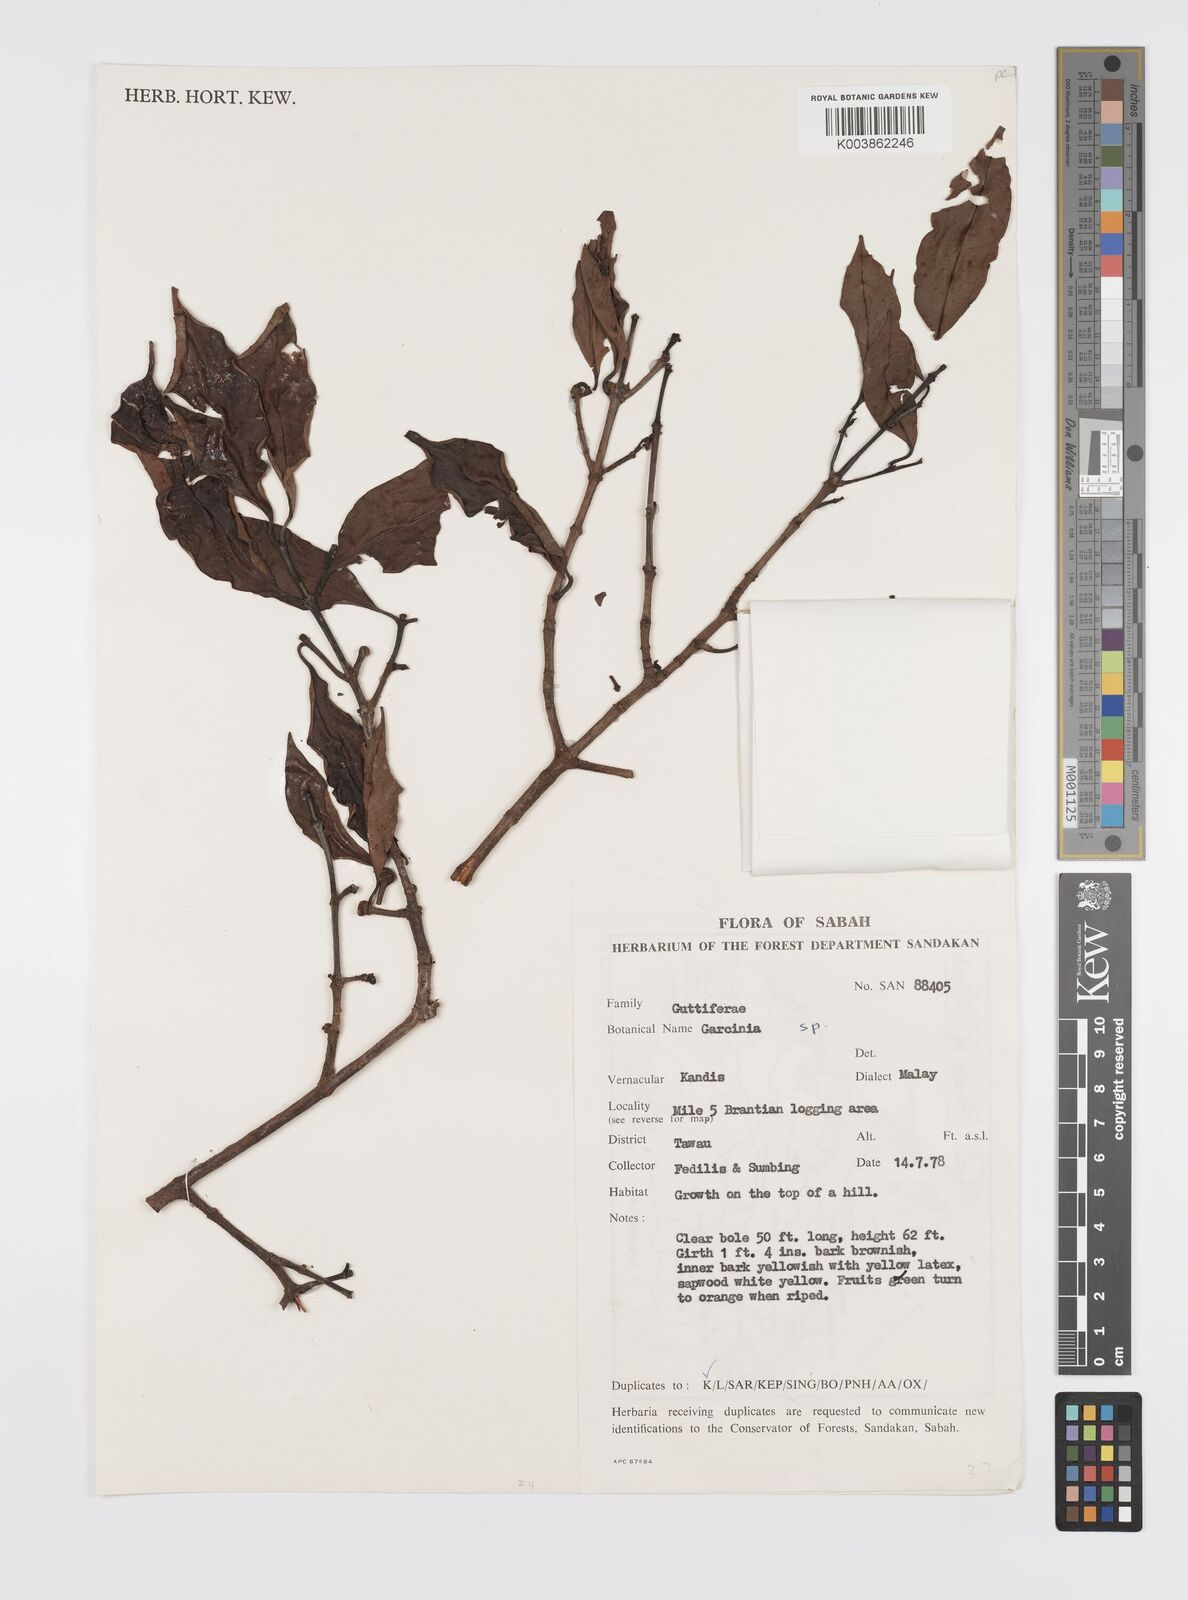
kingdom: Plantae
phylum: Tracheophyta
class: Magnoliopsida
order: Malpighiales
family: Clusiaceae
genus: Garcinia
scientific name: Garcinia
